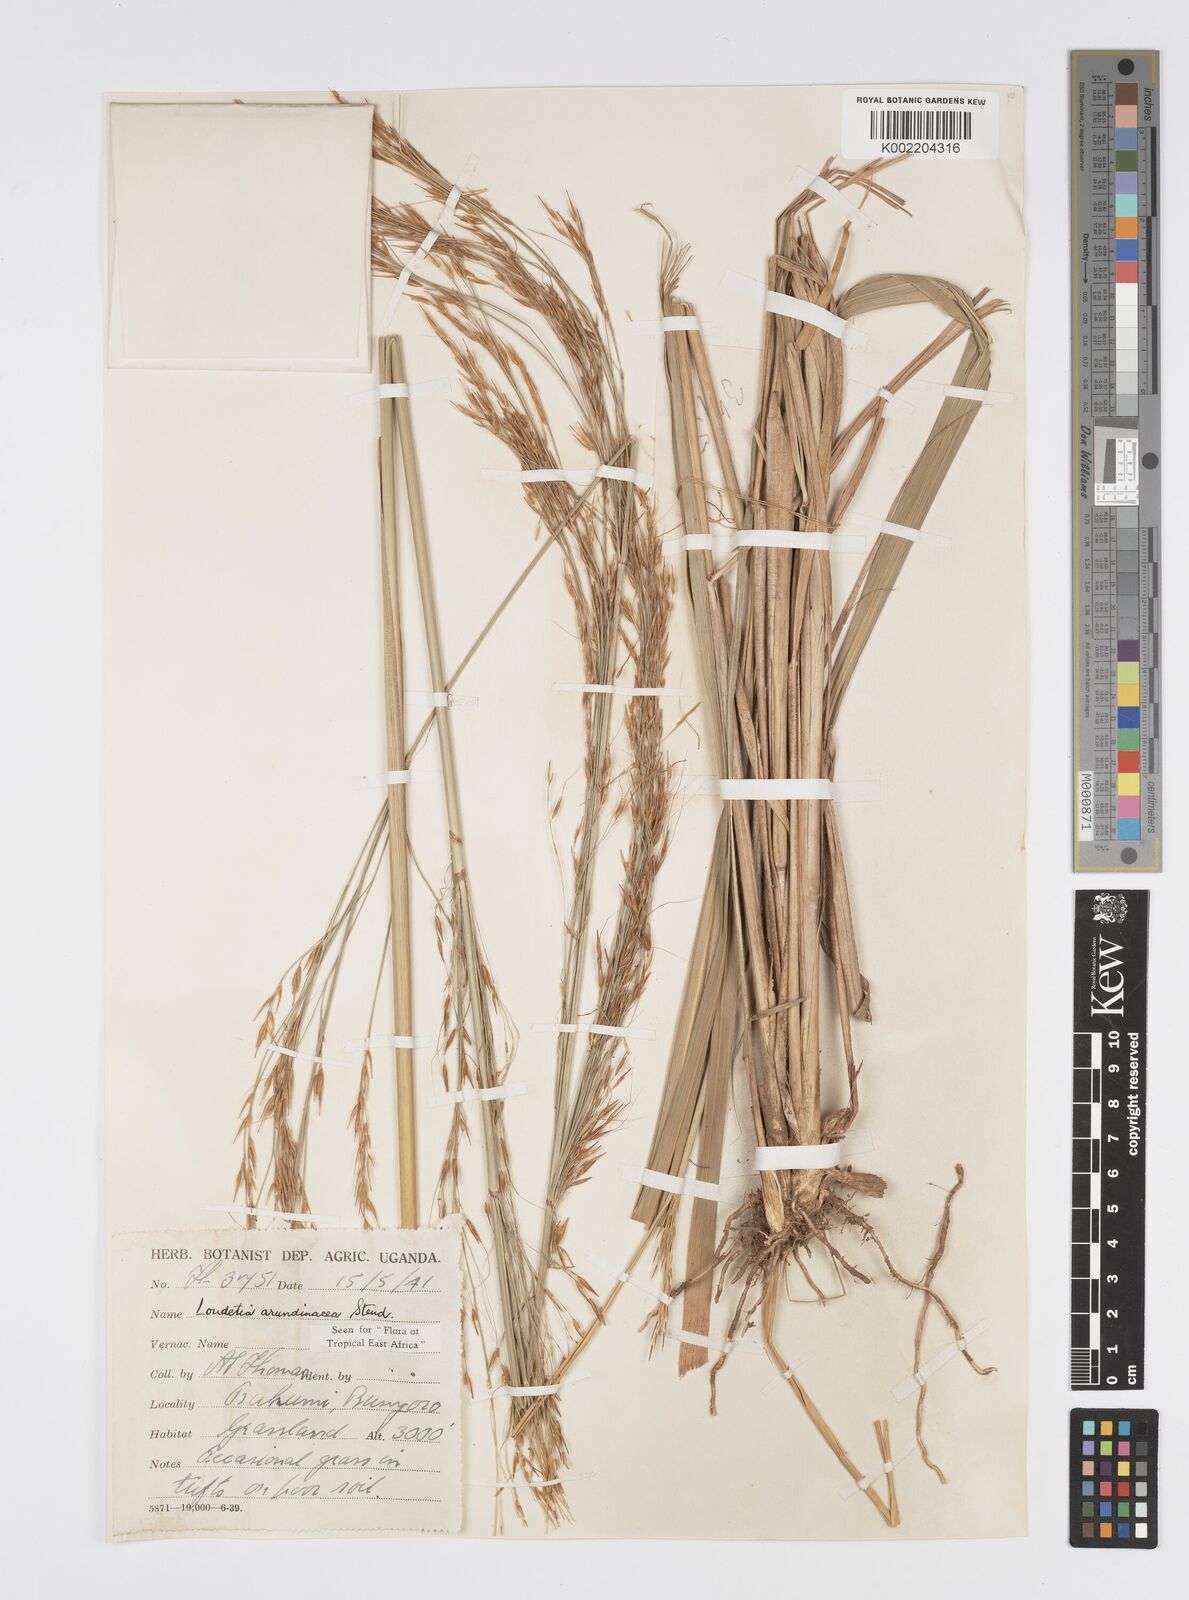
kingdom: Plantae
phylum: Tracheophyta
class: Liliopsida
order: Poales
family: Poaceae
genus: Loudetia
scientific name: Loudetia arundinacea
